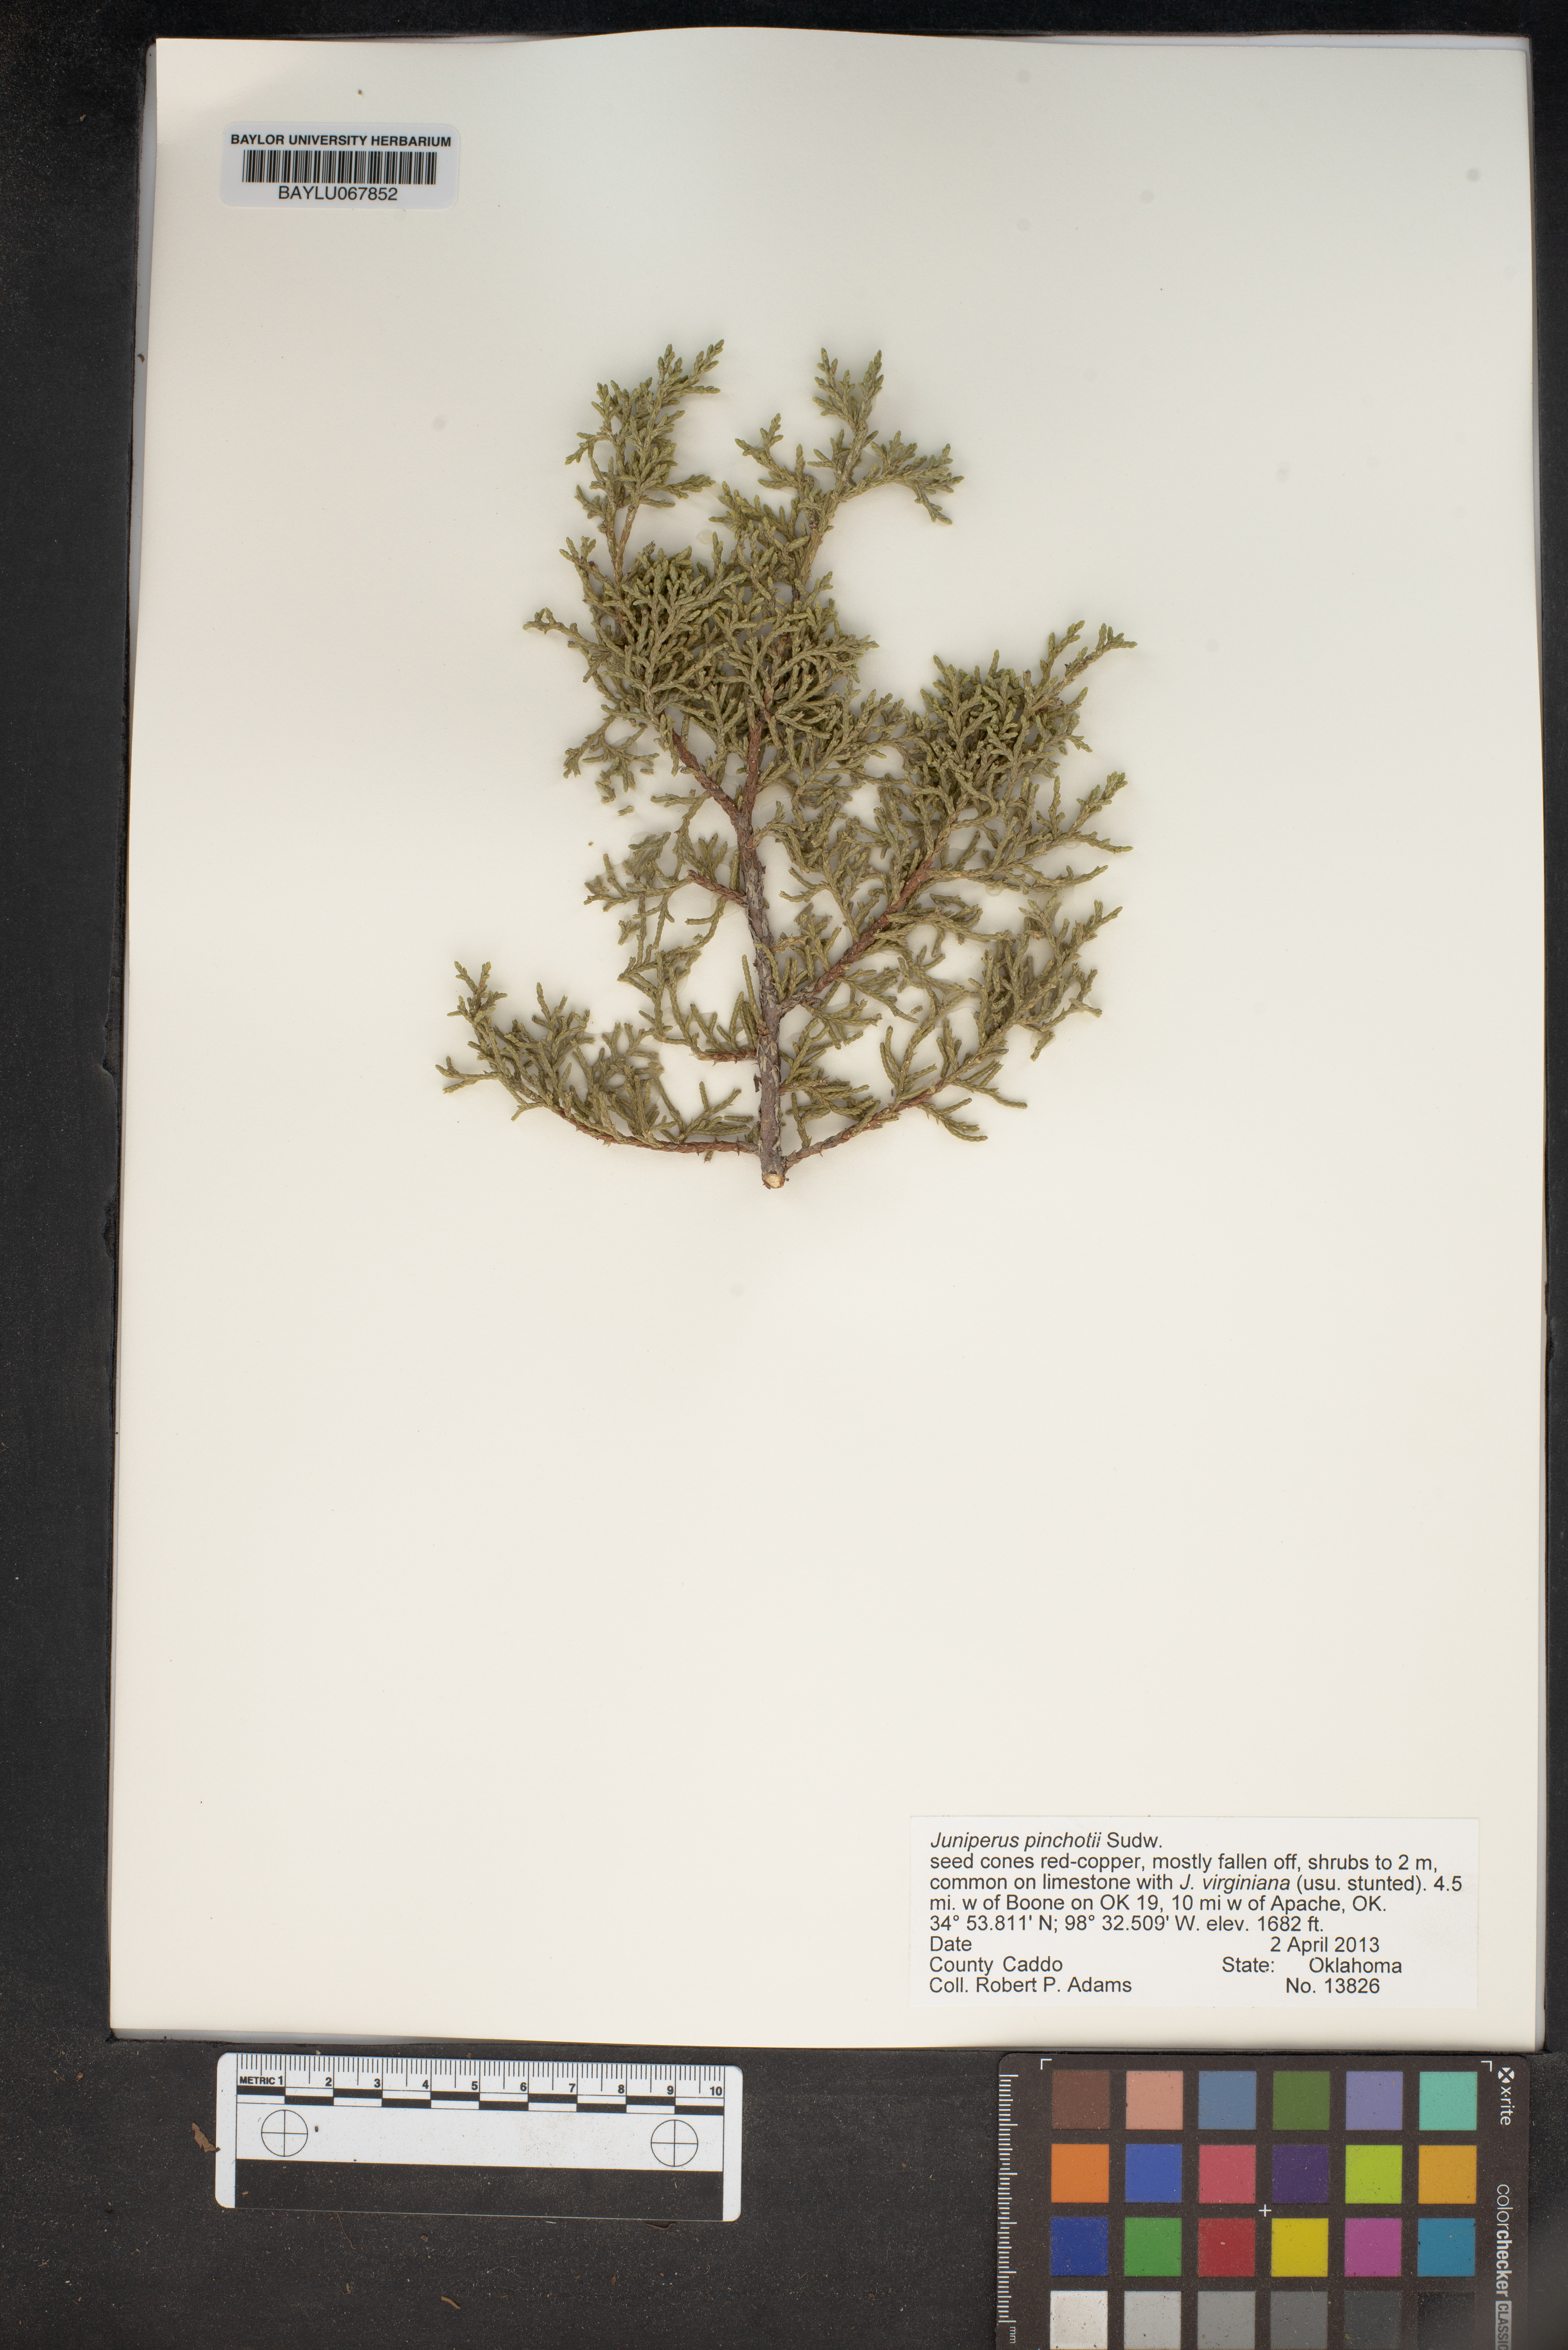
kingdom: Plantae
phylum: Tracheophyta
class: Pinopsida
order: Pinales
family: Cupressaceae
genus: Juniperus
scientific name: Juniperus pinchotii
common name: Pinchot juniper
